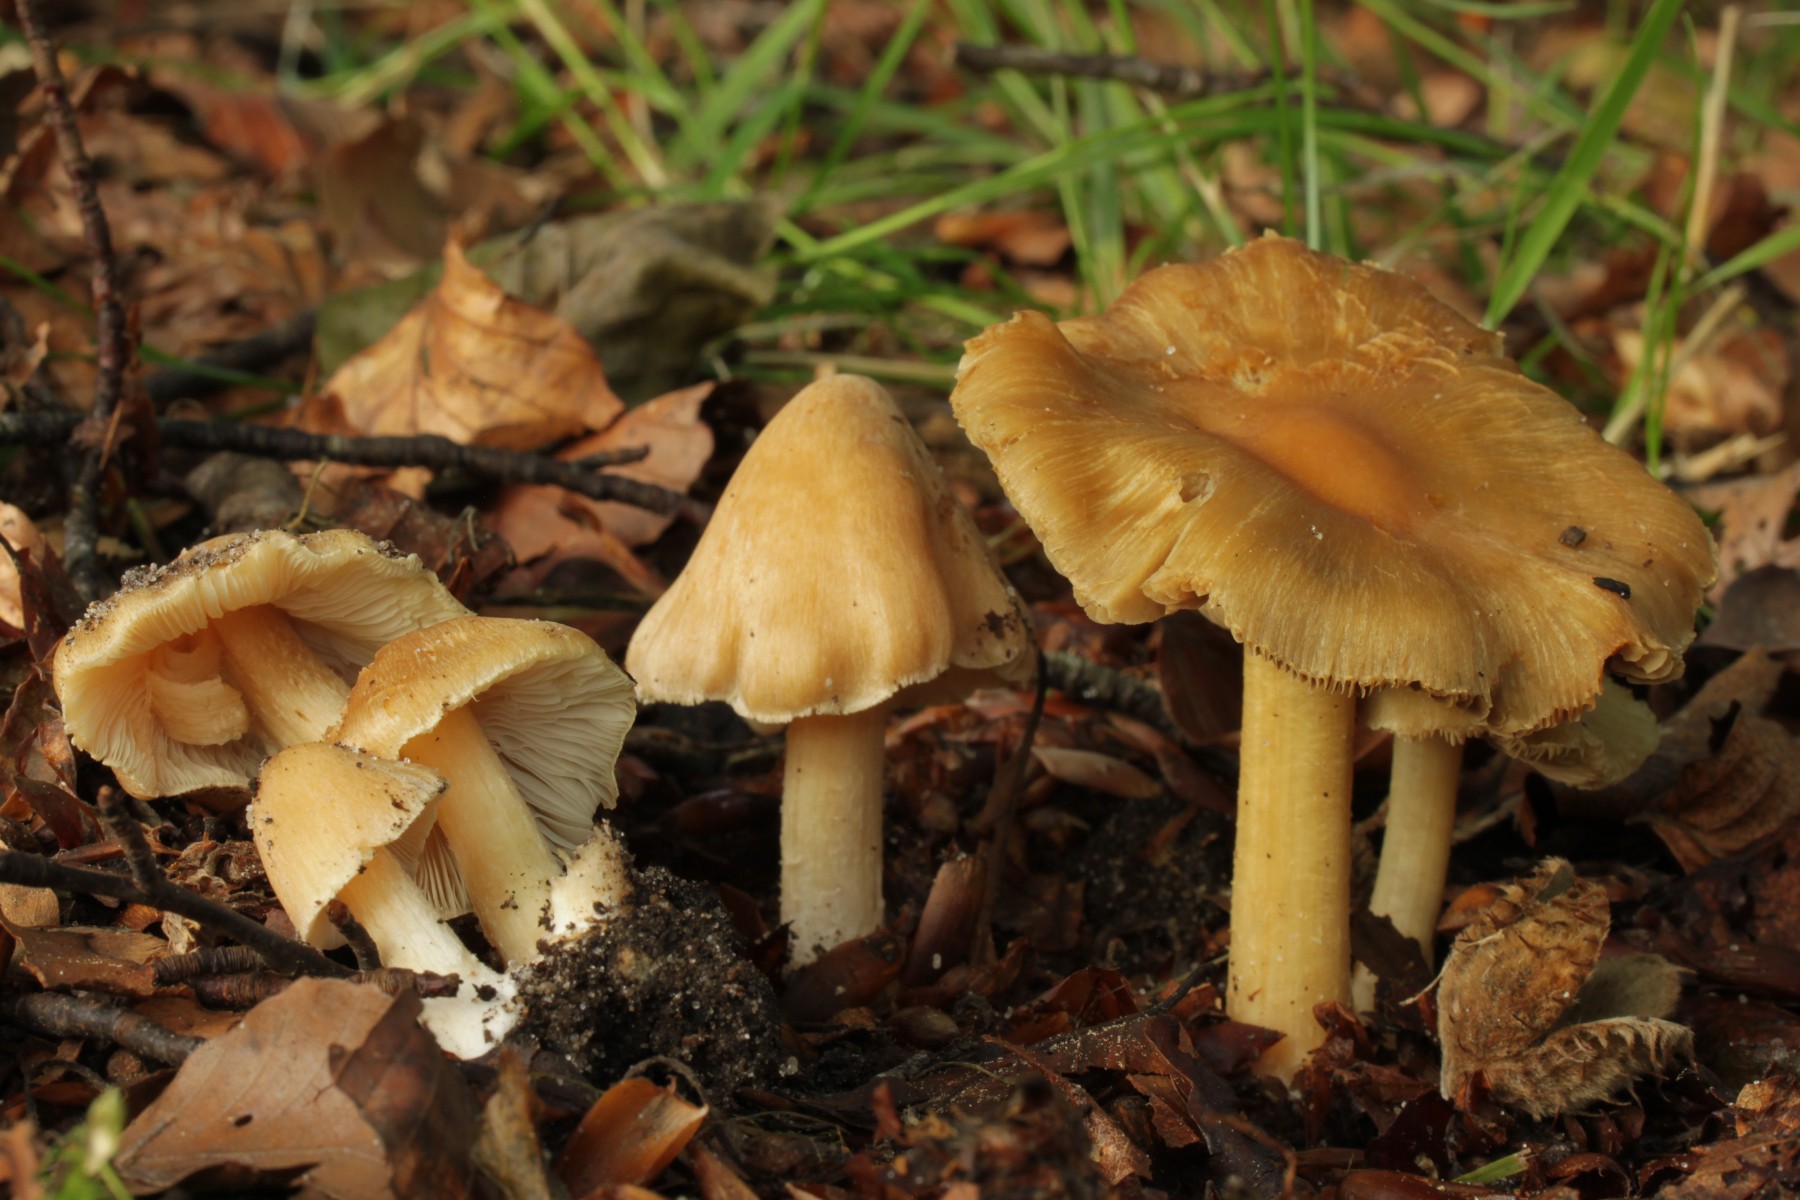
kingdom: Fungi
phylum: Basidiomycota
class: Agaricomycetes
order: Agaricales
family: Inocybaceae
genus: Inosperma
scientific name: Inosperma
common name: strågul trævlhat
